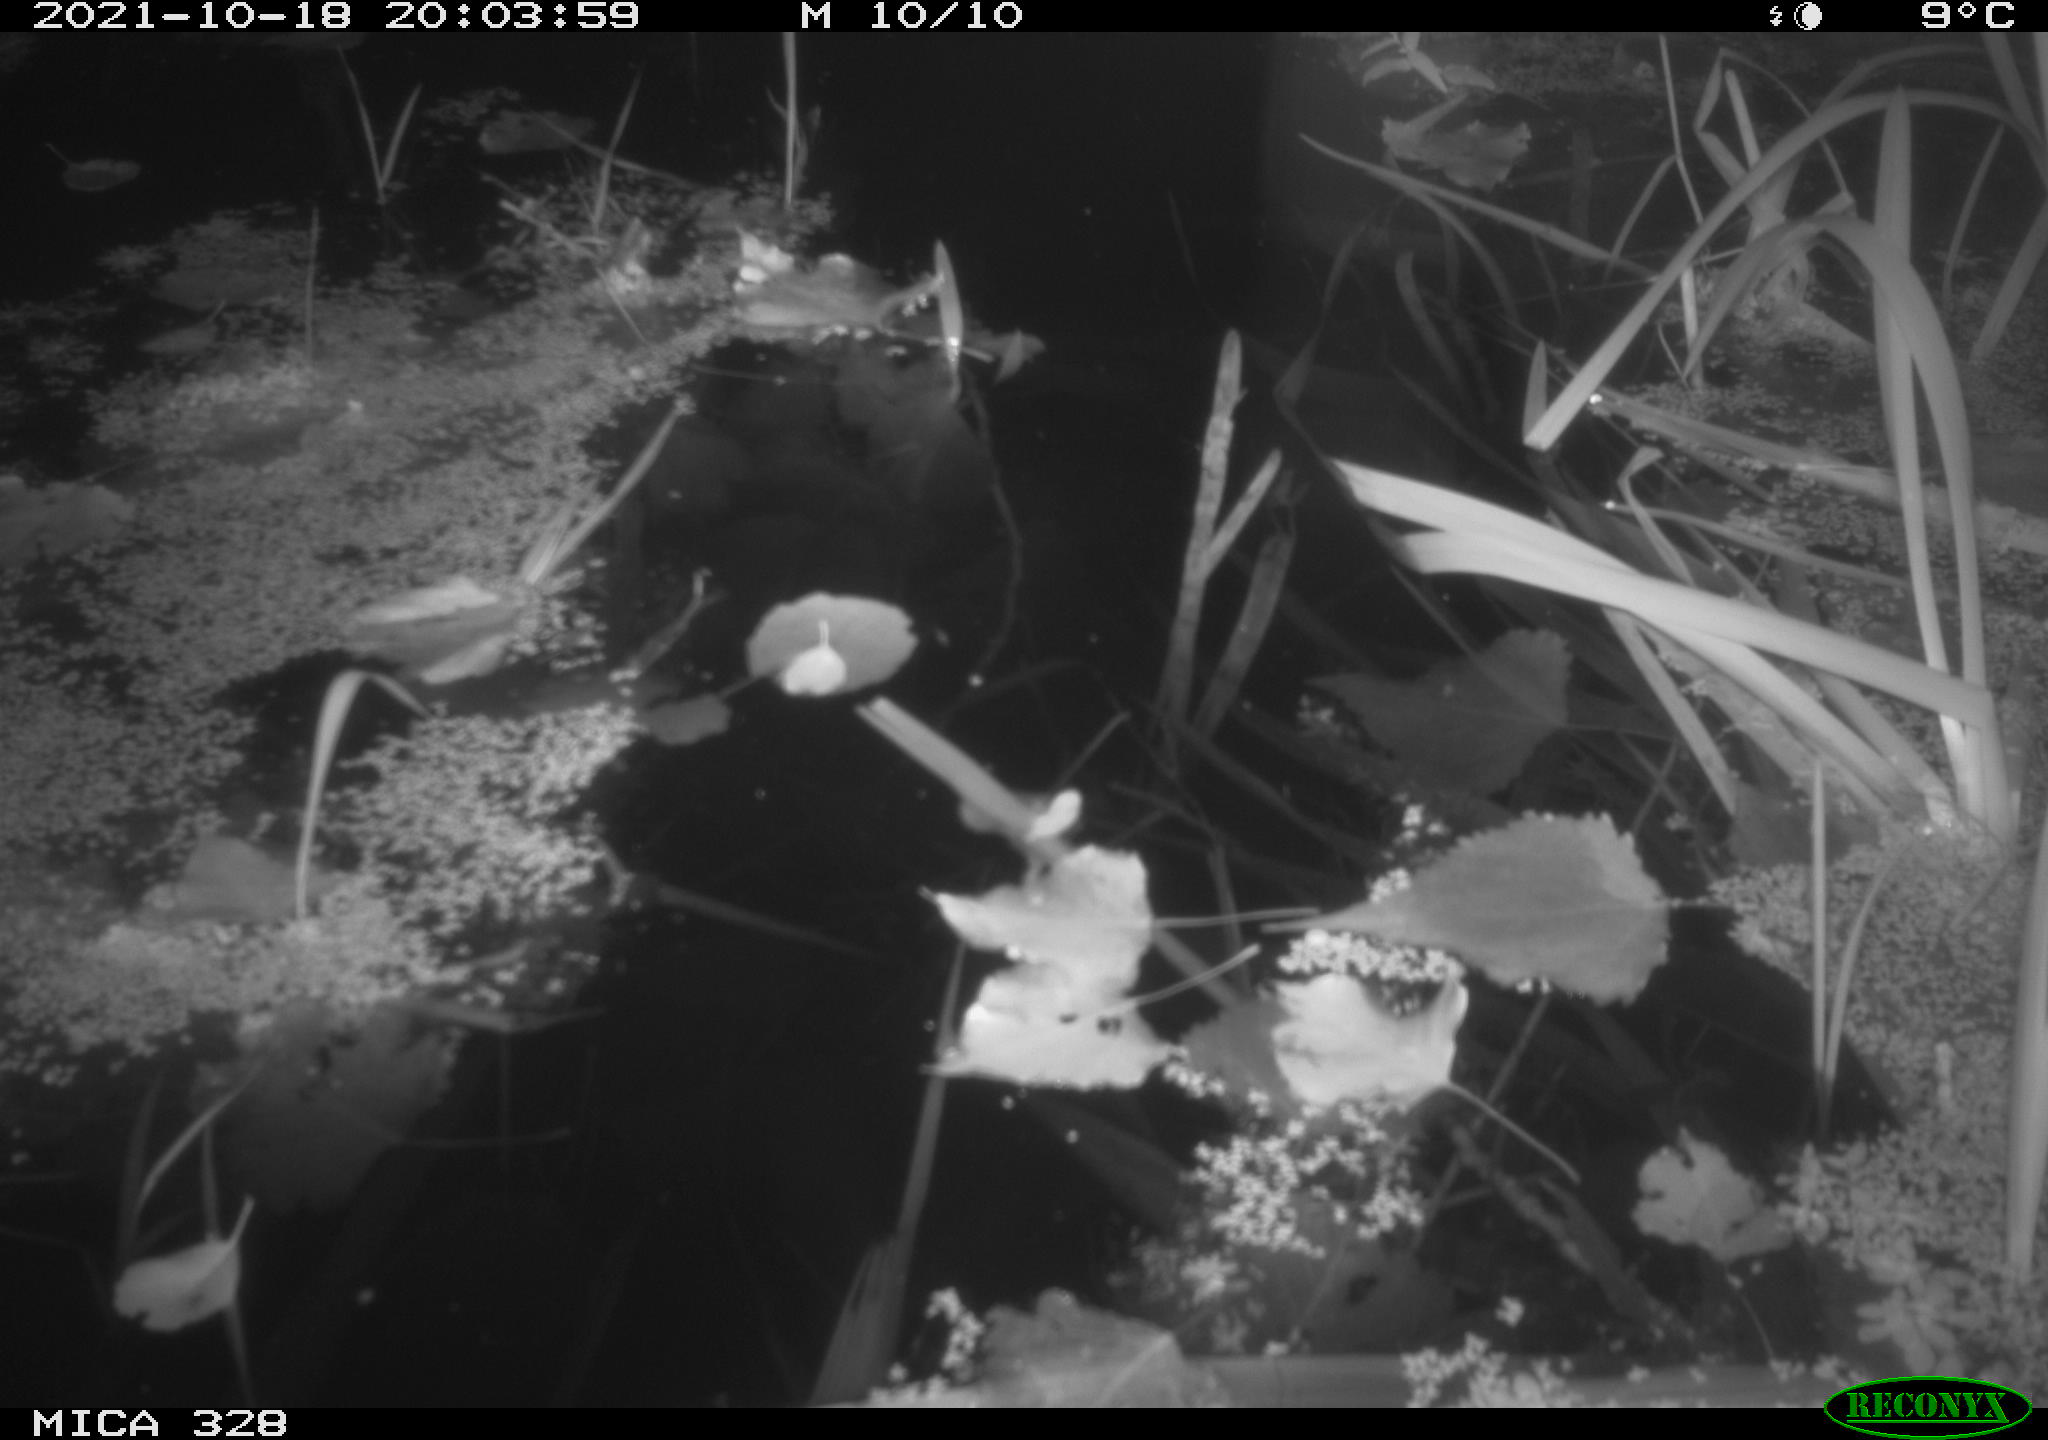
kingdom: Animalia
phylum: Chordata
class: Mammalia
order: Rodentia
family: Cricetidae
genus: Ondatra
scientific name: Ondatra zibethicus
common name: Muskrat
